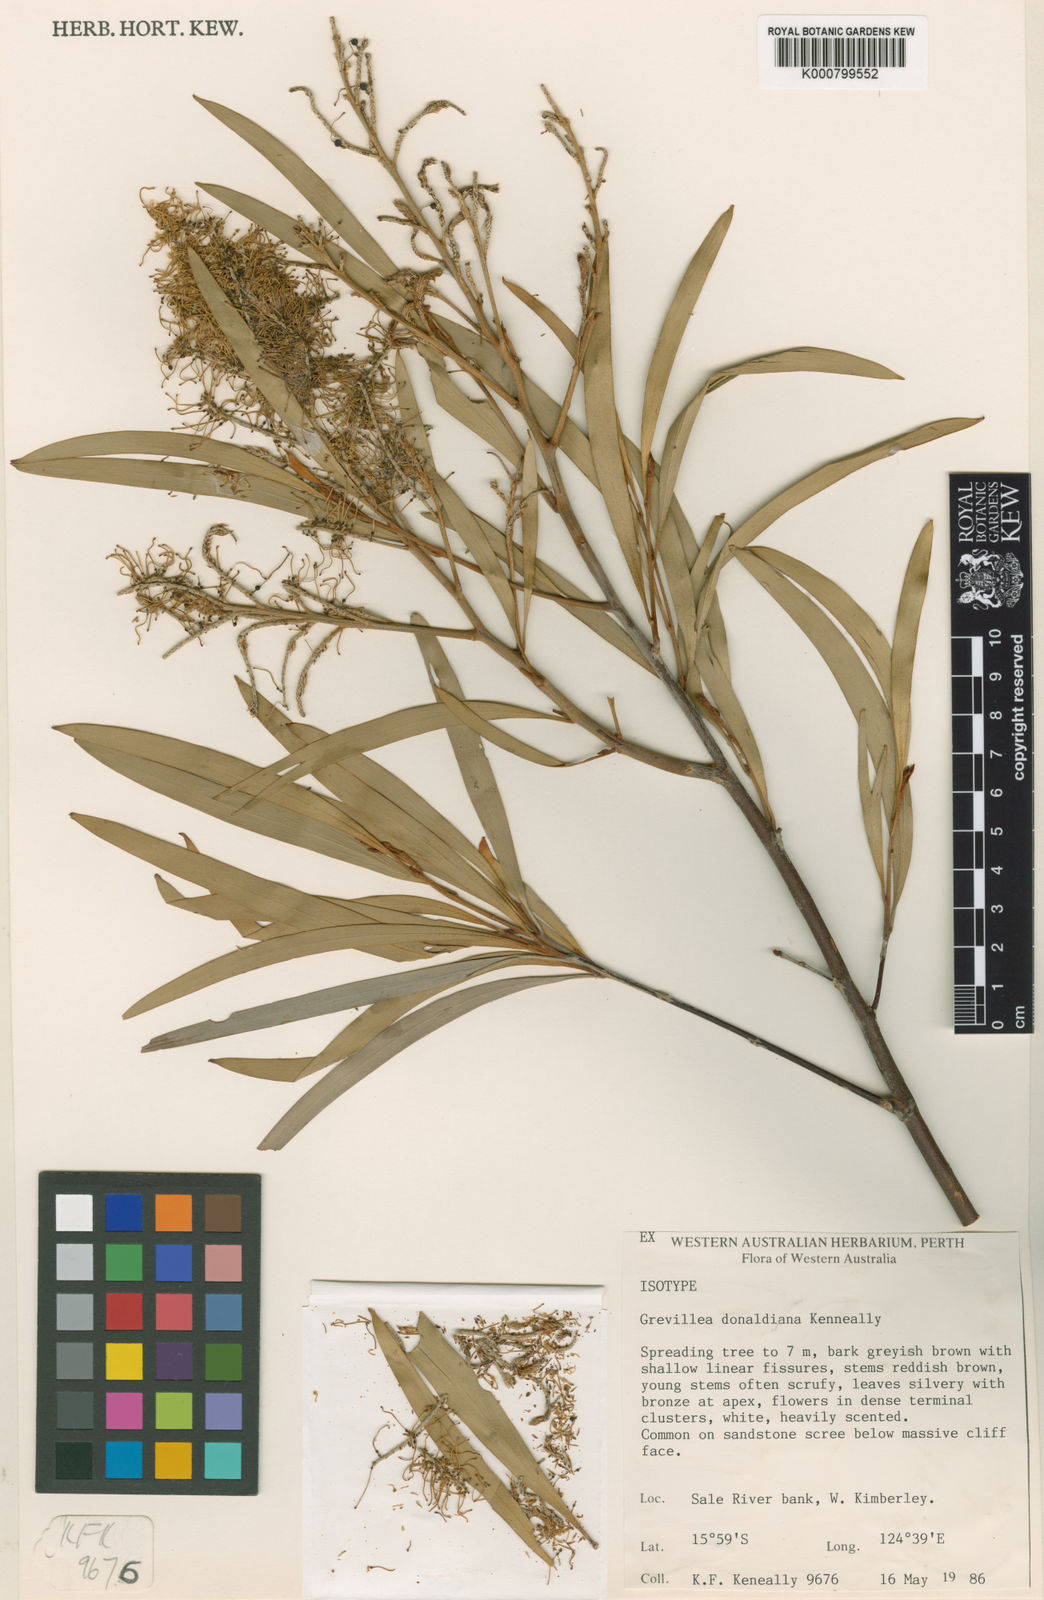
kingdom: Plantae
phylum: Tracheophyta
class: Magnoliopsida
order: Proteales
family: Proteaceae
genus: Grevillea
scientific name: Grevillea donaldiana
